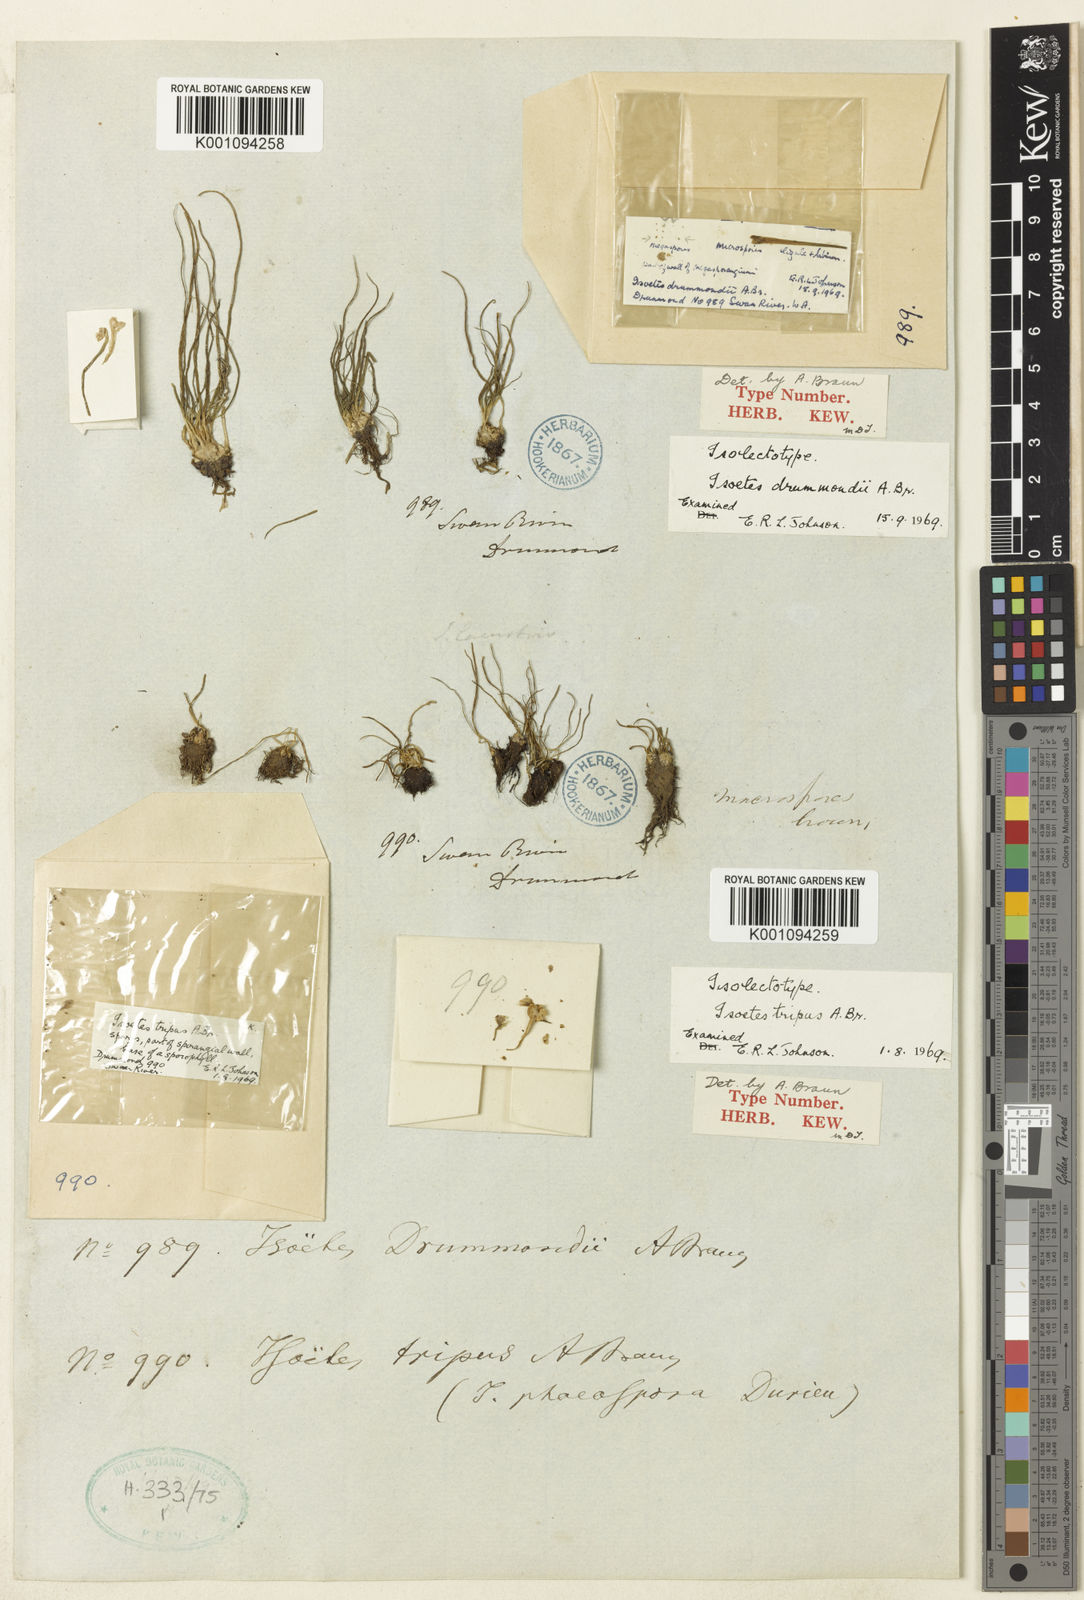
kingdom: Plantae
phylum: Tracheophyta
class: Lycopodiopsida
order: Isoetales
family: Isoetaceae
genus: Isoetes
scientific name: Isoetes drummondii
